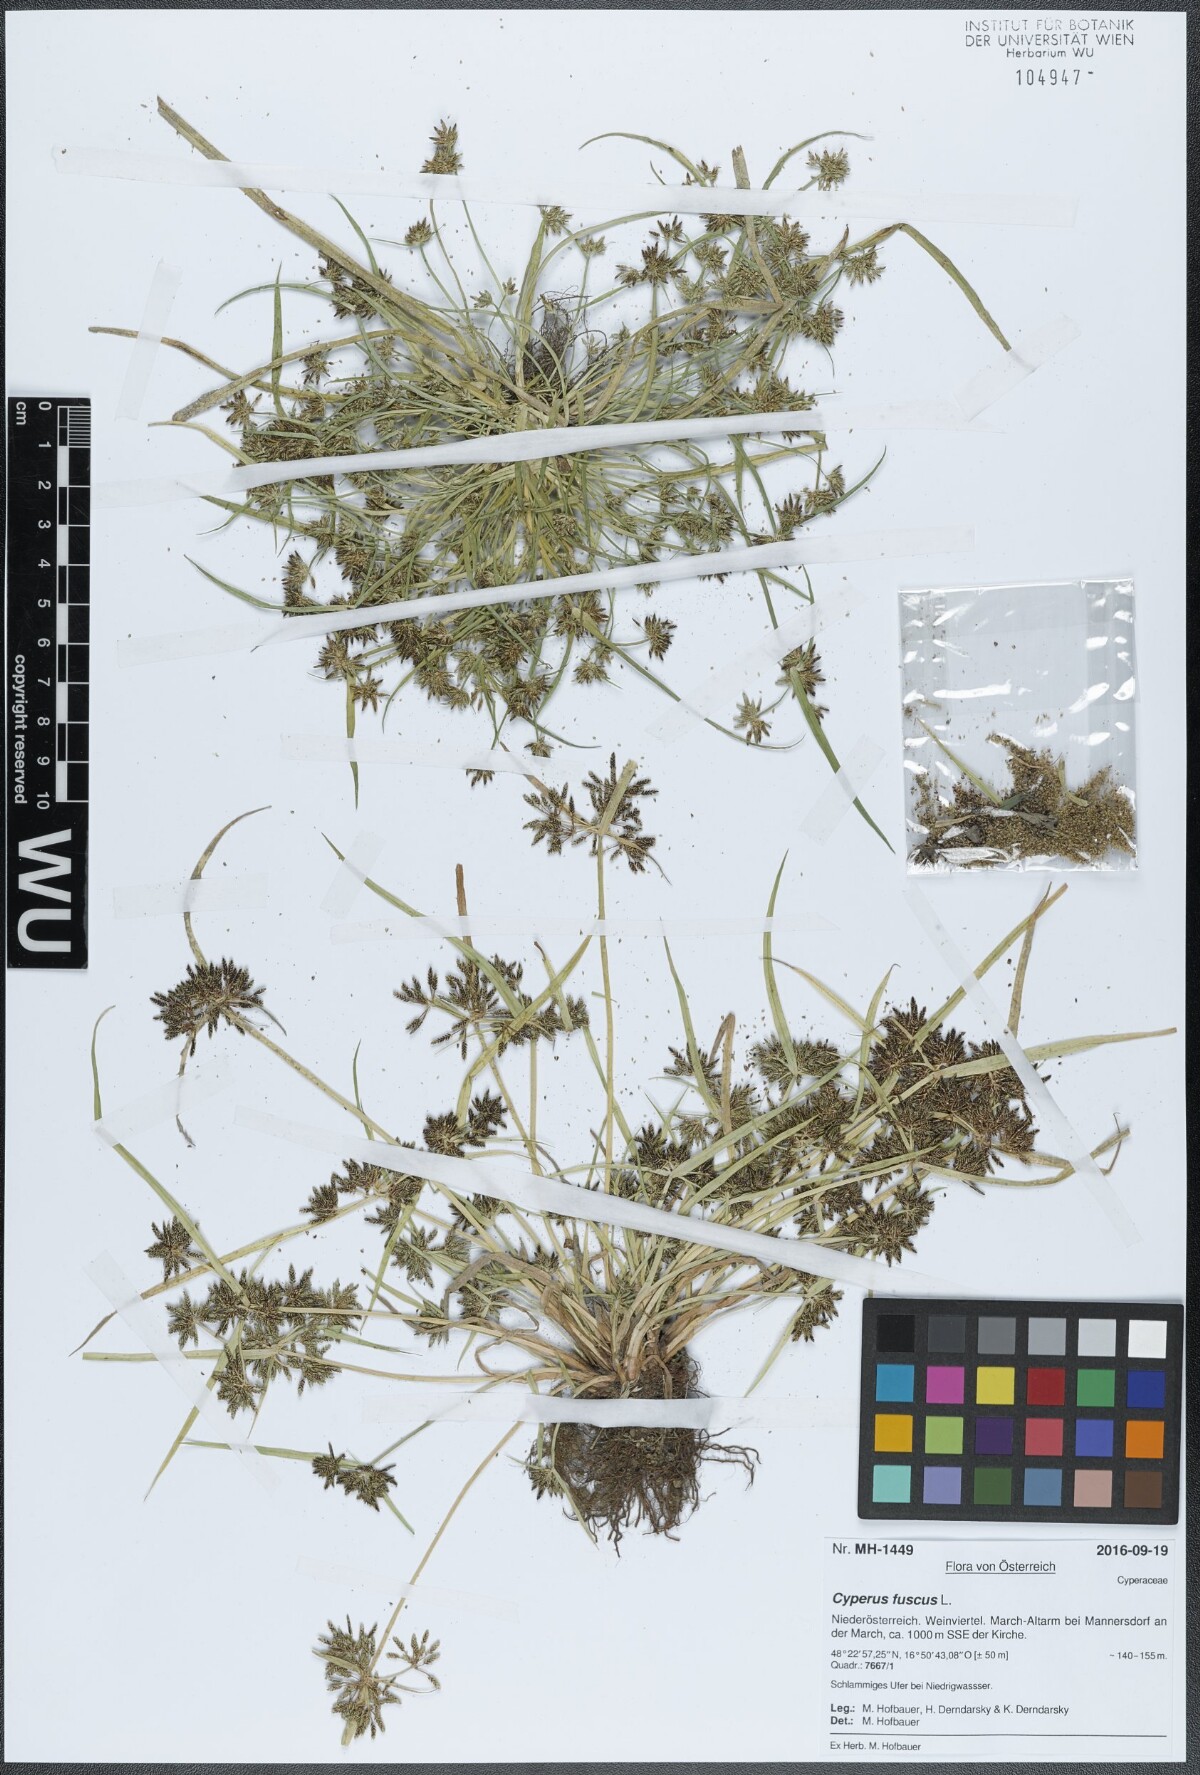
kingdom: Plantae
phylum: Tracheophyta
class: Liliopsida
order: Poales
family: Cyperaceae
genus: Cyperus
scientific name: Cyperus fuscus
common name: Brown galingale
